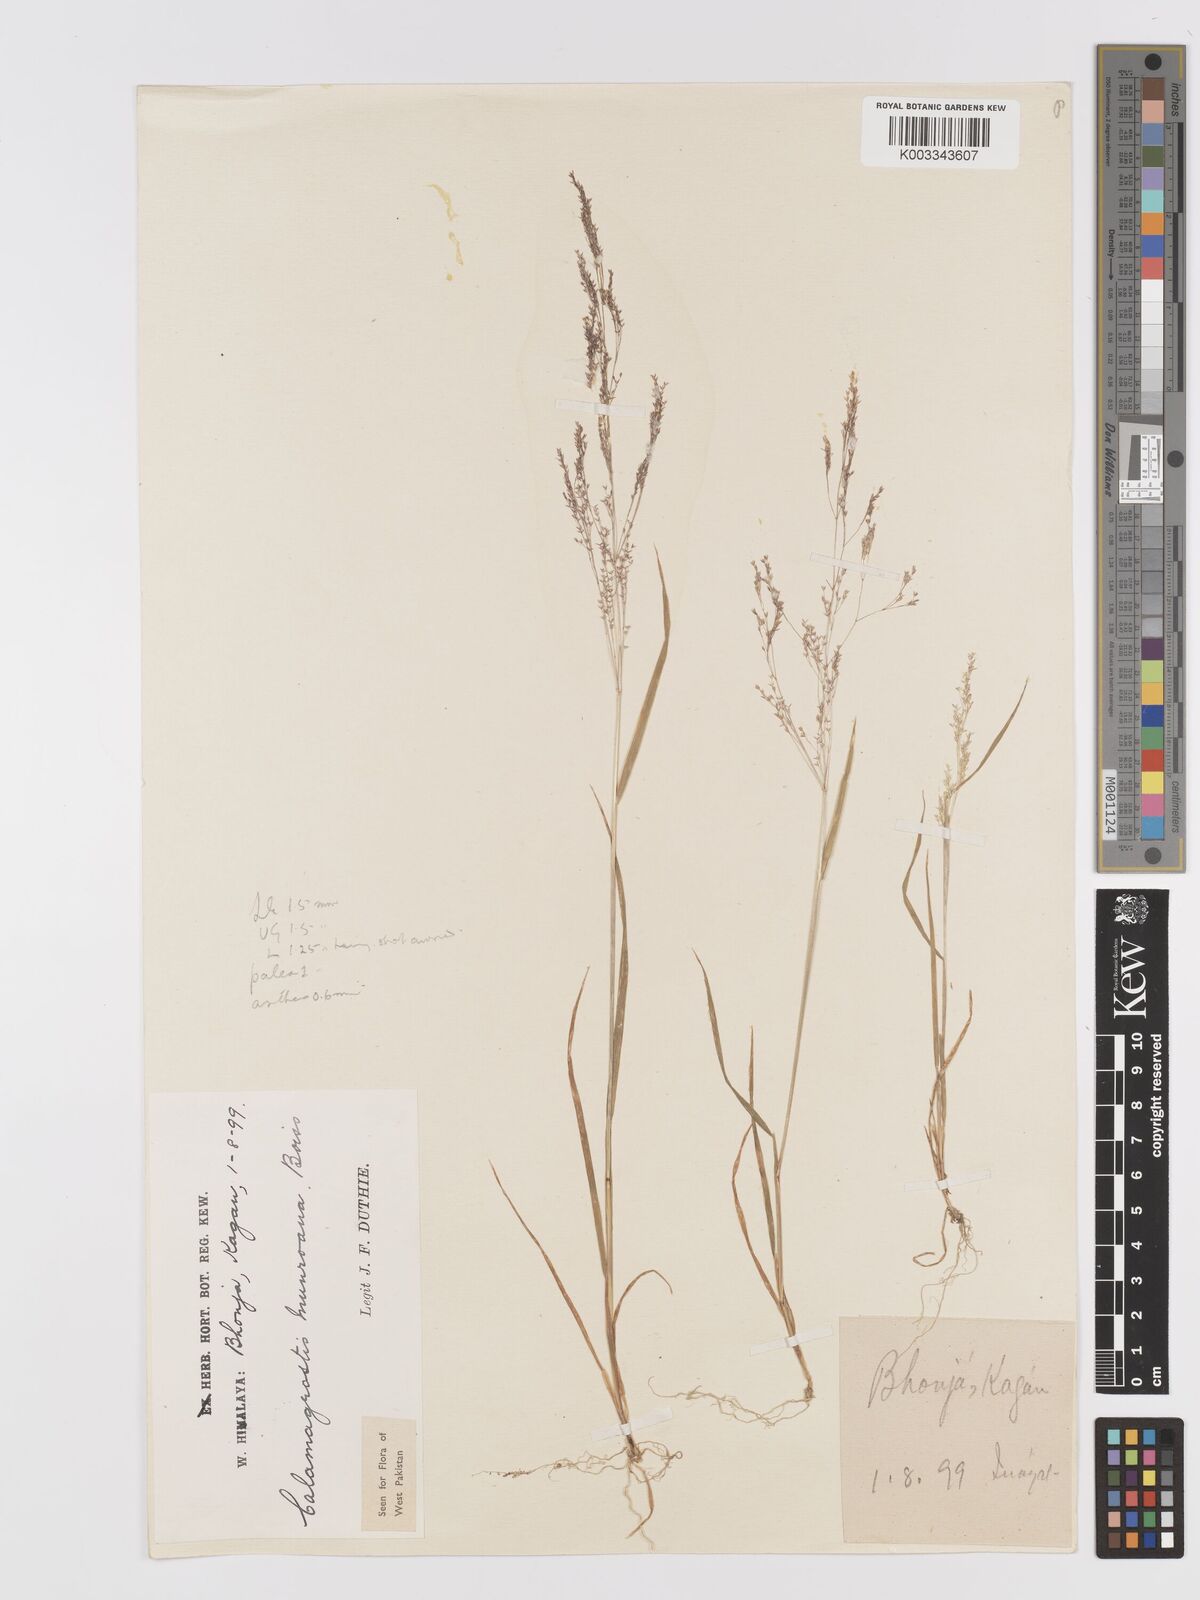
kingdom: Plantae
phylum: Tracheophyta
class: Liliopsida
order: Poales
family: Poaceae
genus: Agrostis
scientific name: Agrostis munroana
